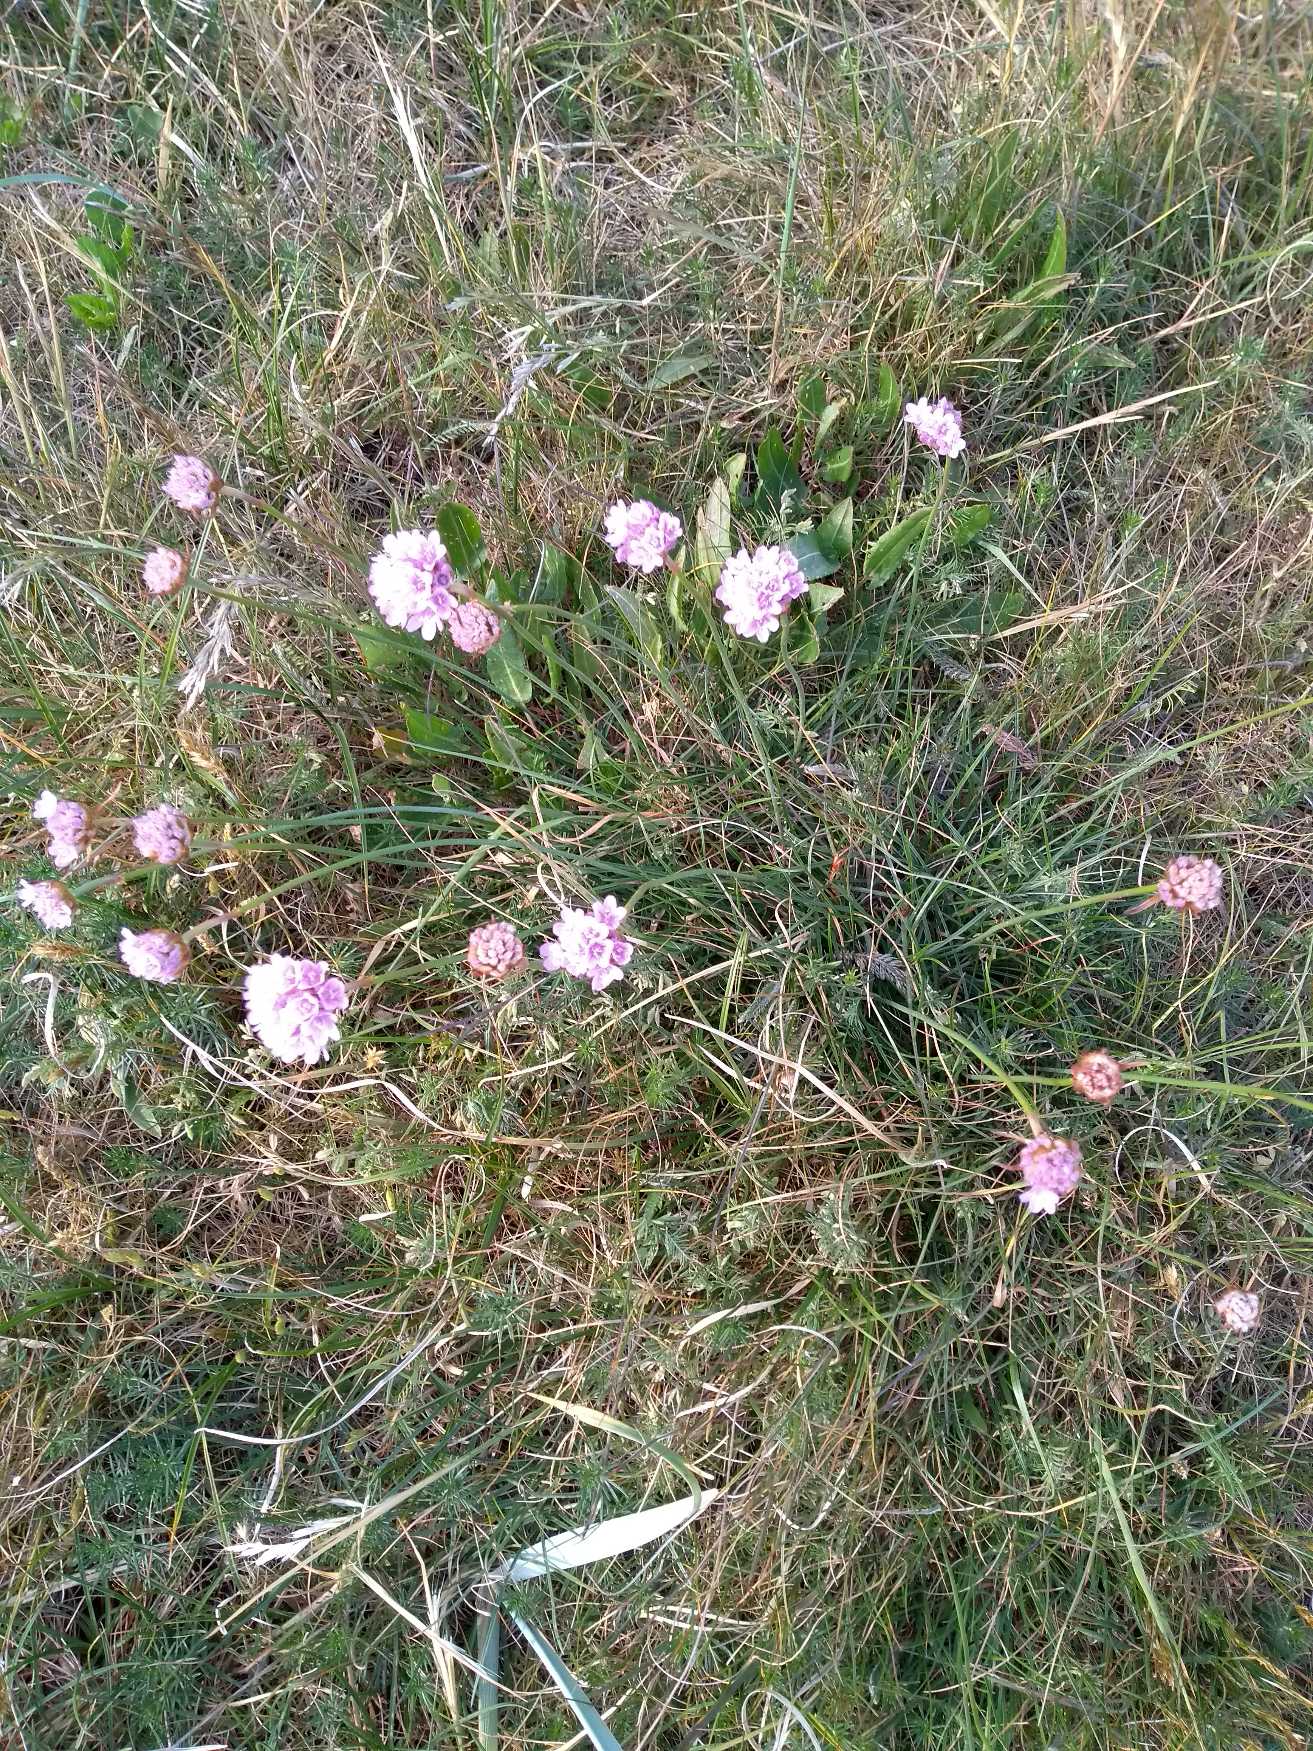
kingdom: Plantae
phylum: Tracheophyta
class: Magnoliopsida
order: Caryophyllales
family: Plumbaginaceae
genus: Armeria
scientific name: Armeria maritima
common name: Engelskgræs
